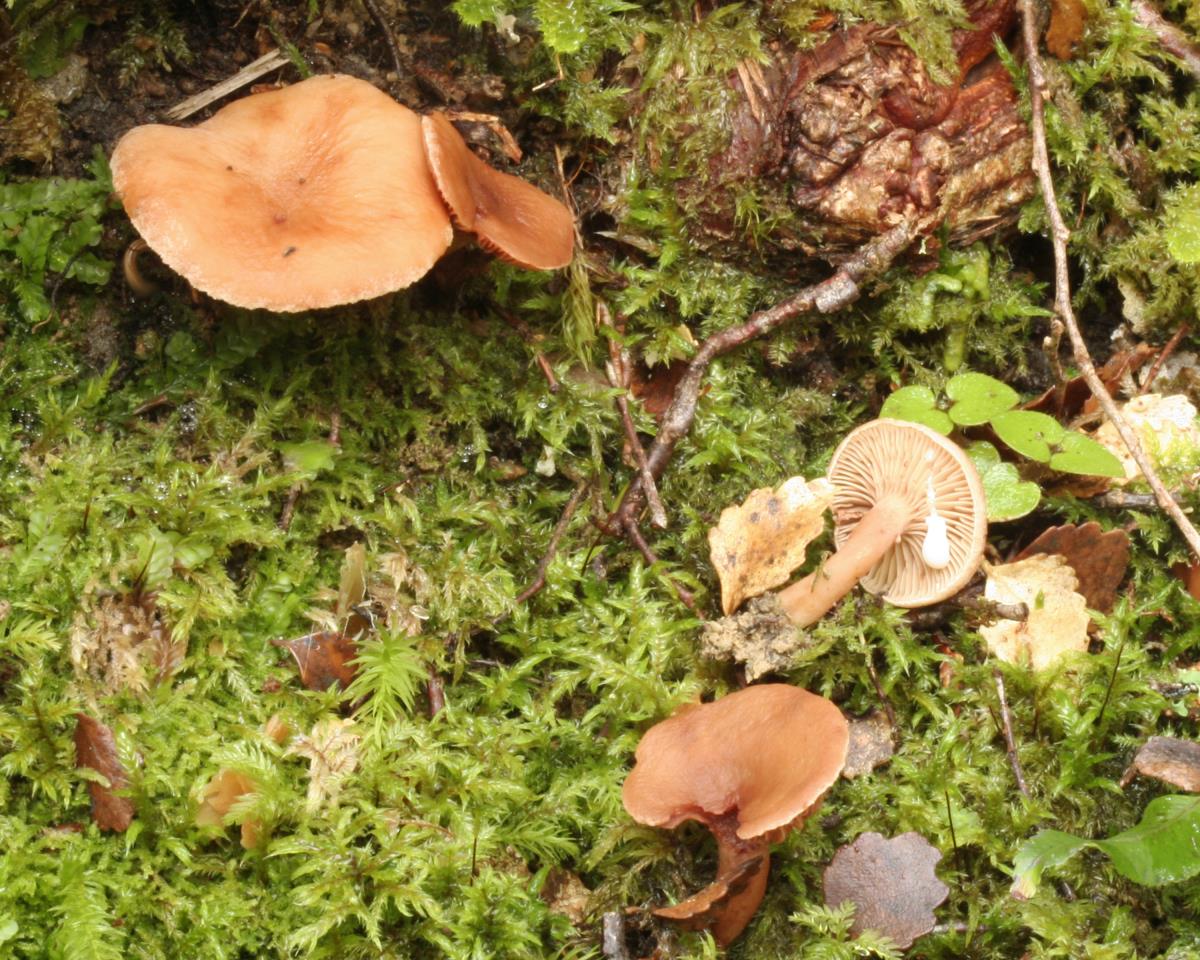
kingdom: Fungi
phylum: Basidiomycota
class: Agaricomycetes
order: Russulales
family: Russulaceae
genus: Lactarius
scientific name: Lactarius umerensis
